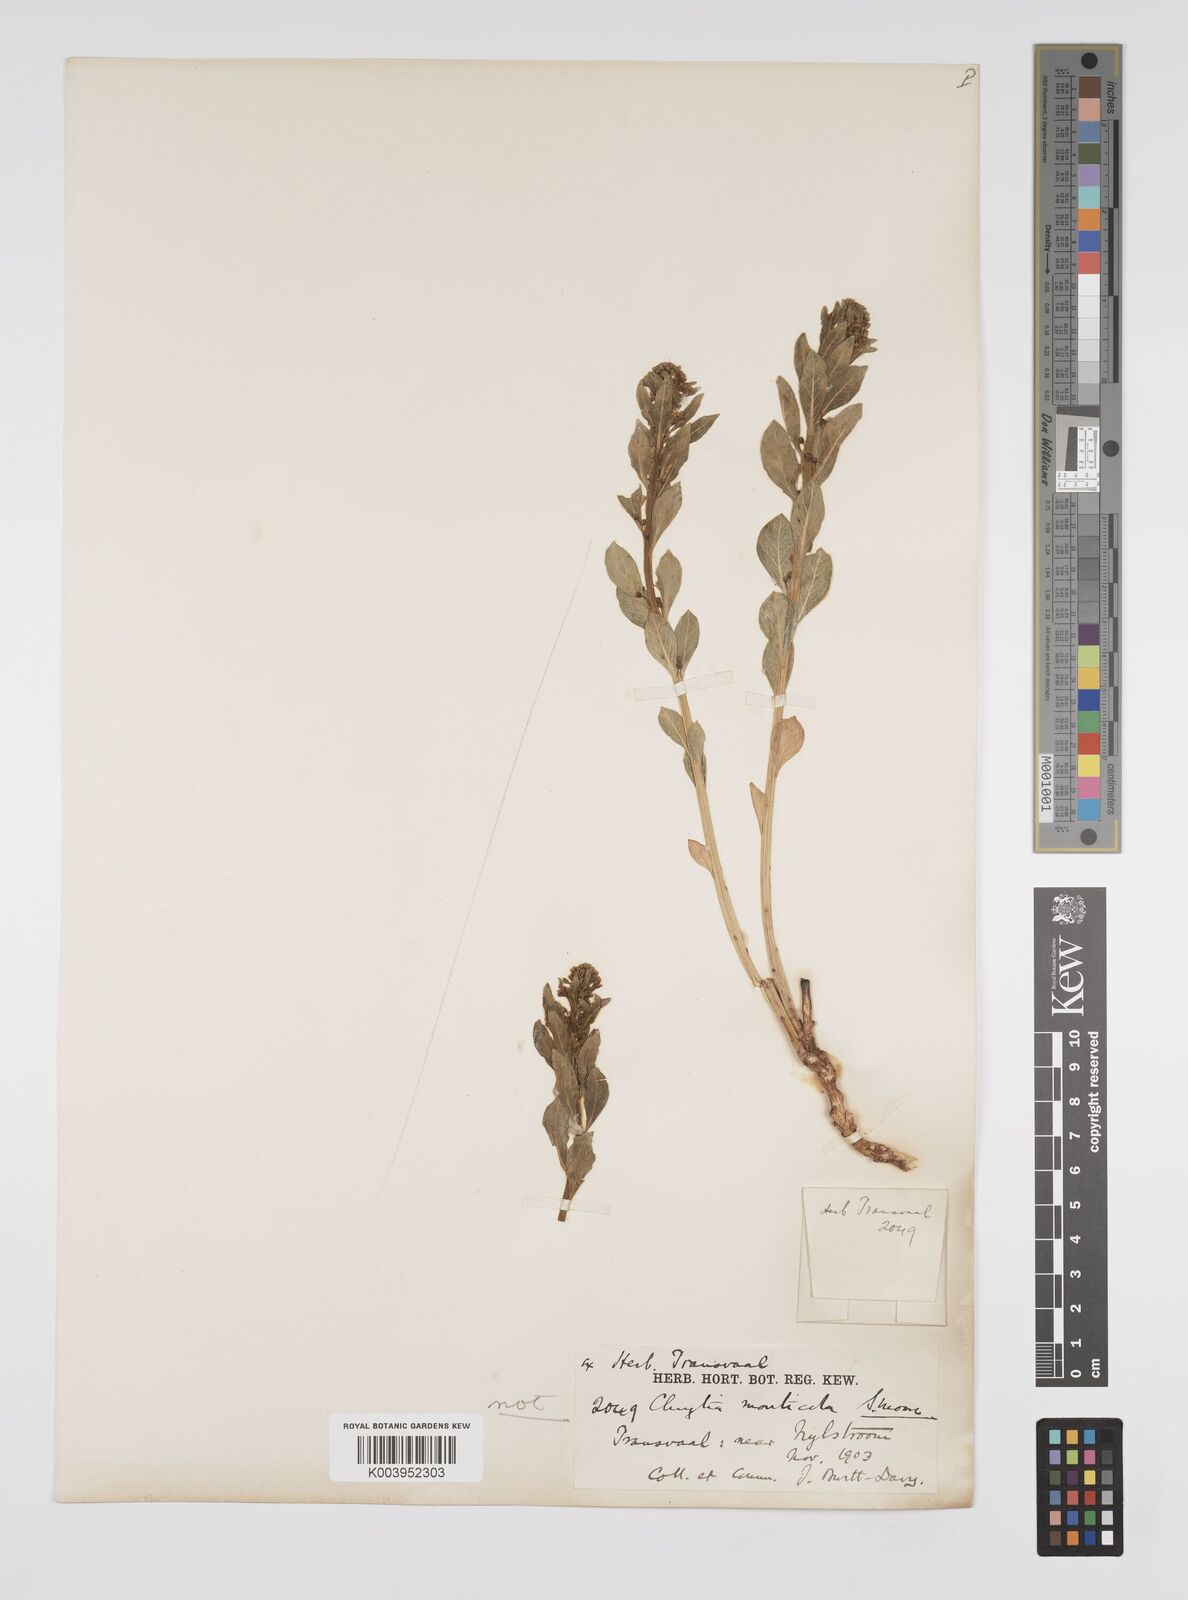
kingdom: Plantae
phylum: Tracheophyta
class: Magnoliopsida
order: Malpighiales
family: Peraceae
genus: Clutia
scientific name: Clutia
